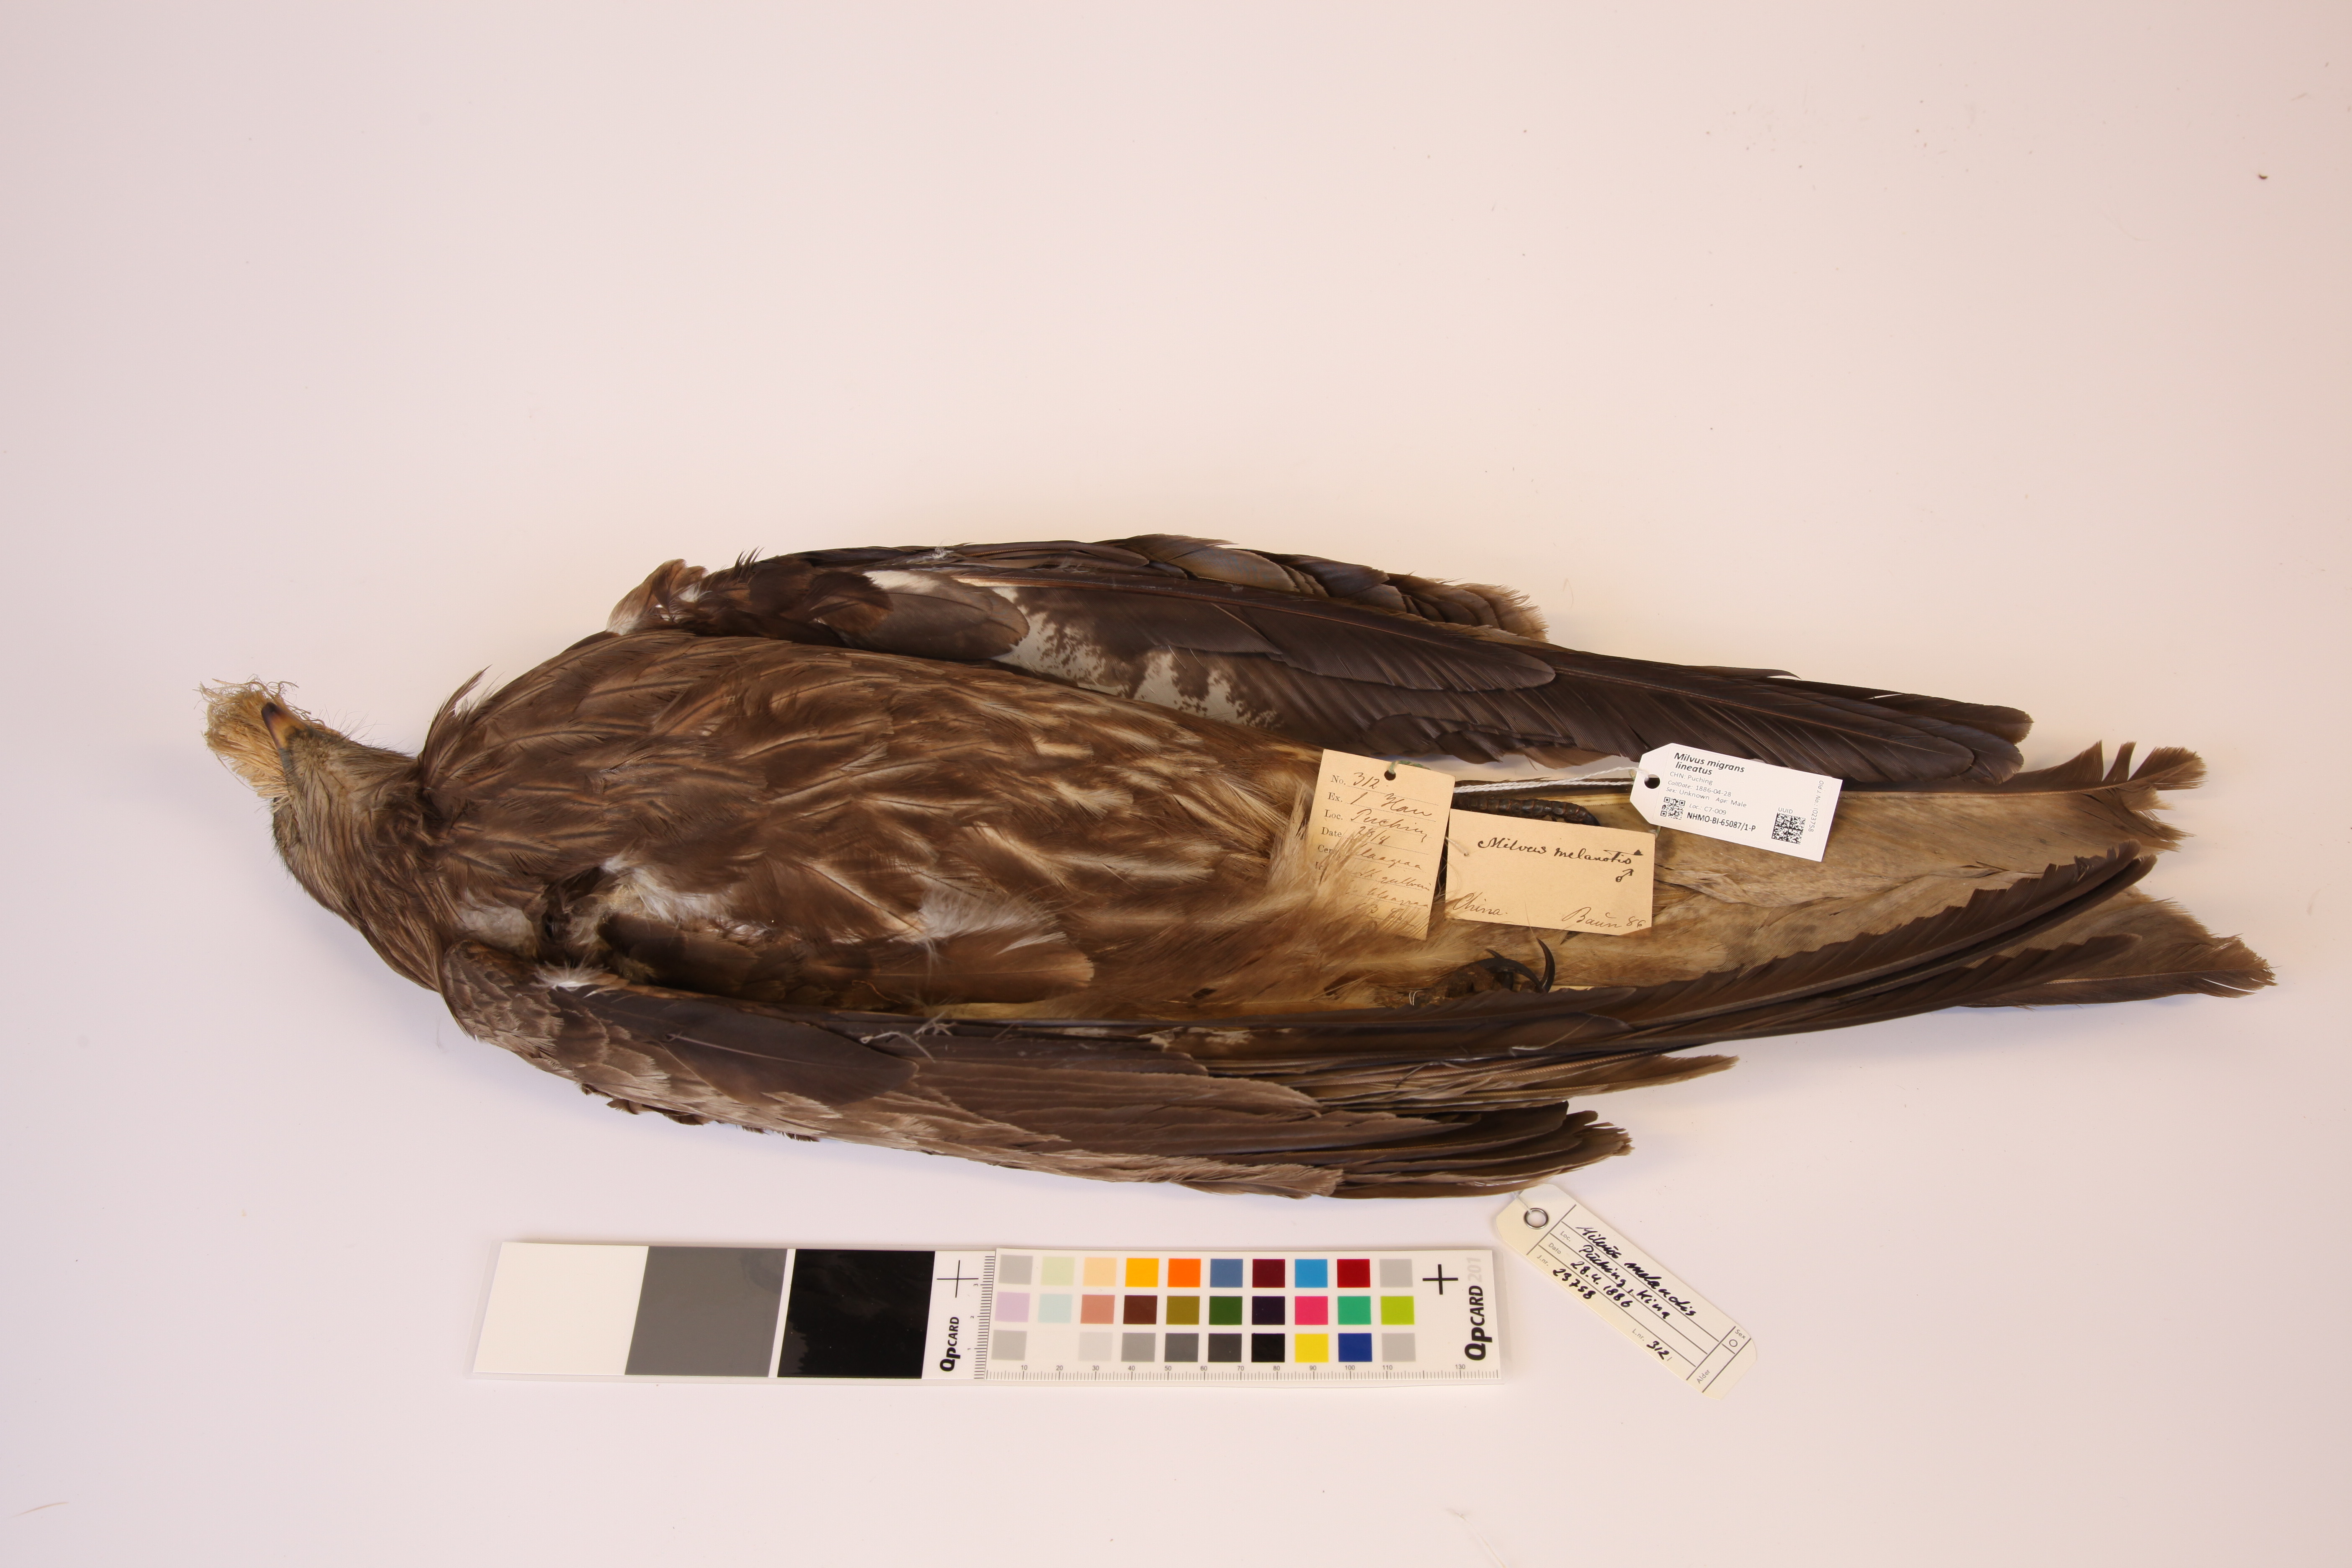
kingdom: Animalia
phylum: Chordata
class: Aves
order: Accipitriformes
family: Accipitridae
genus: Milvus
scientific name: Milvus migrans
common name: Black kite
